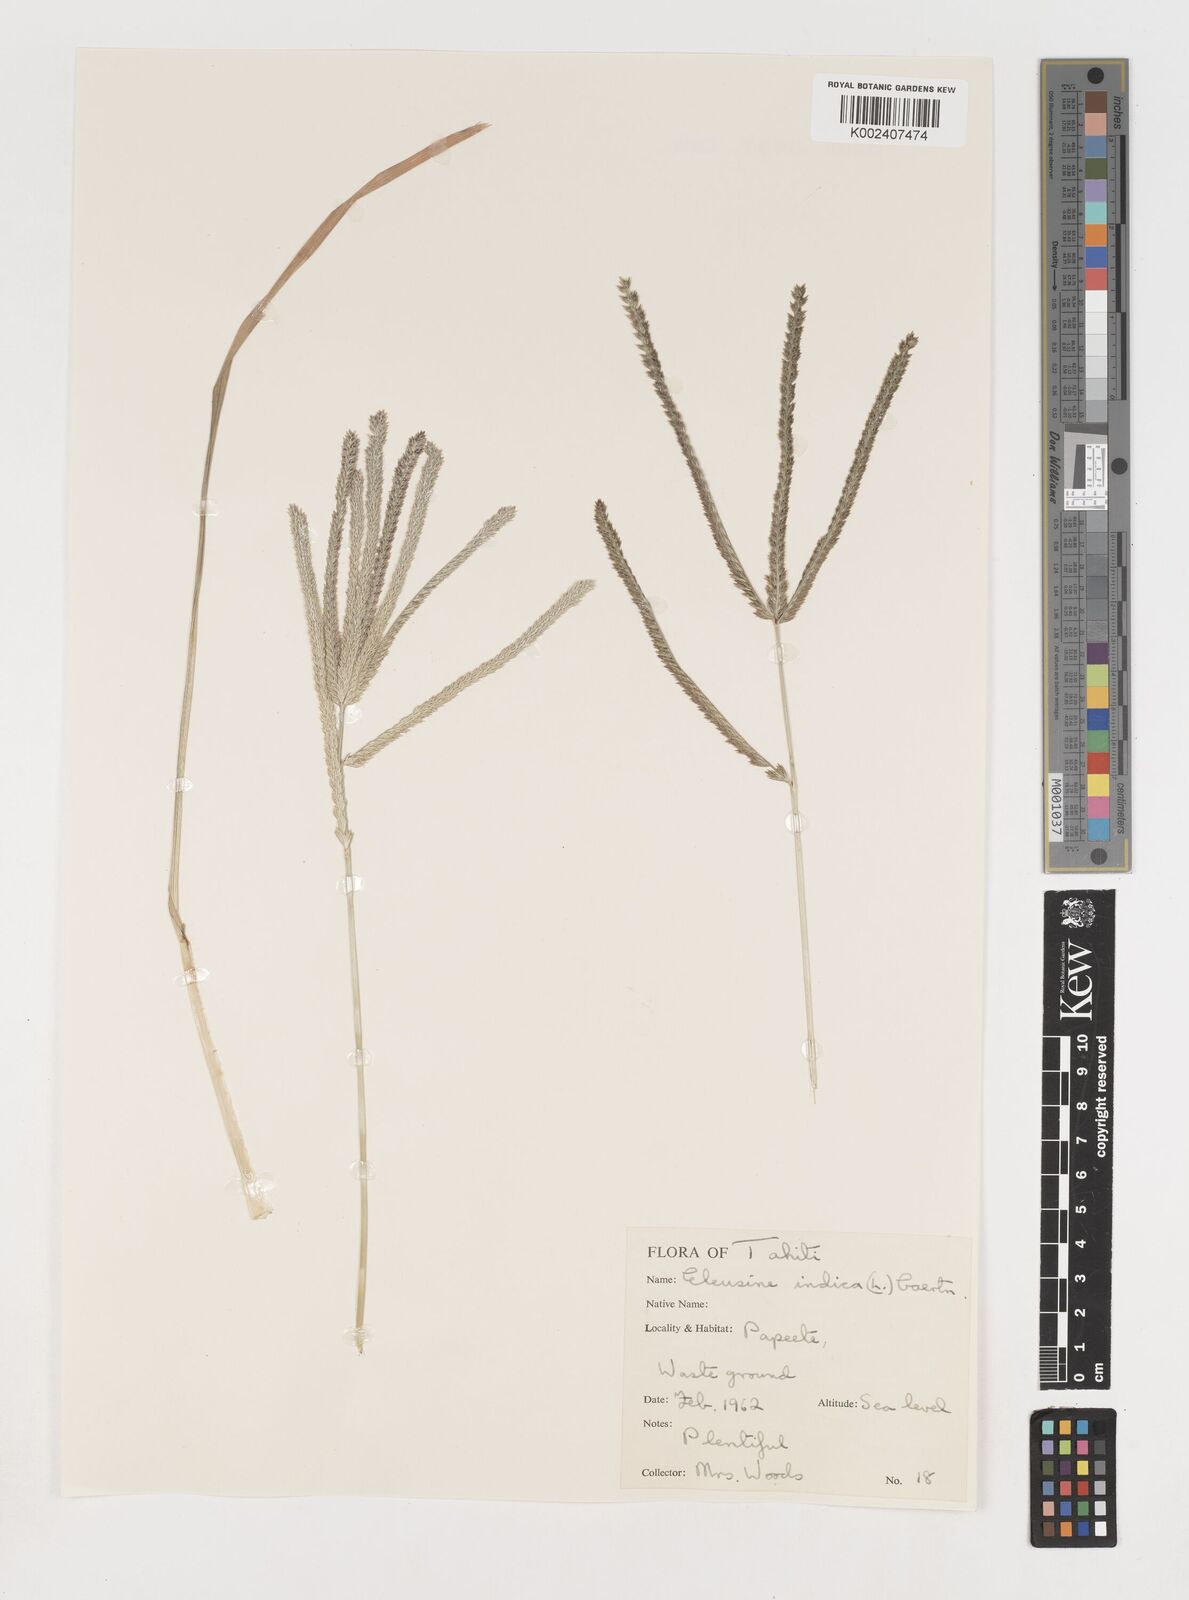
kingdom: Plantae
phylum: Tracheophyta
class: Liliopsida
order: Poales
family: Poaceae
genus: Eleusine
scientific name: Eleusine indica
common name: Yard-grass
